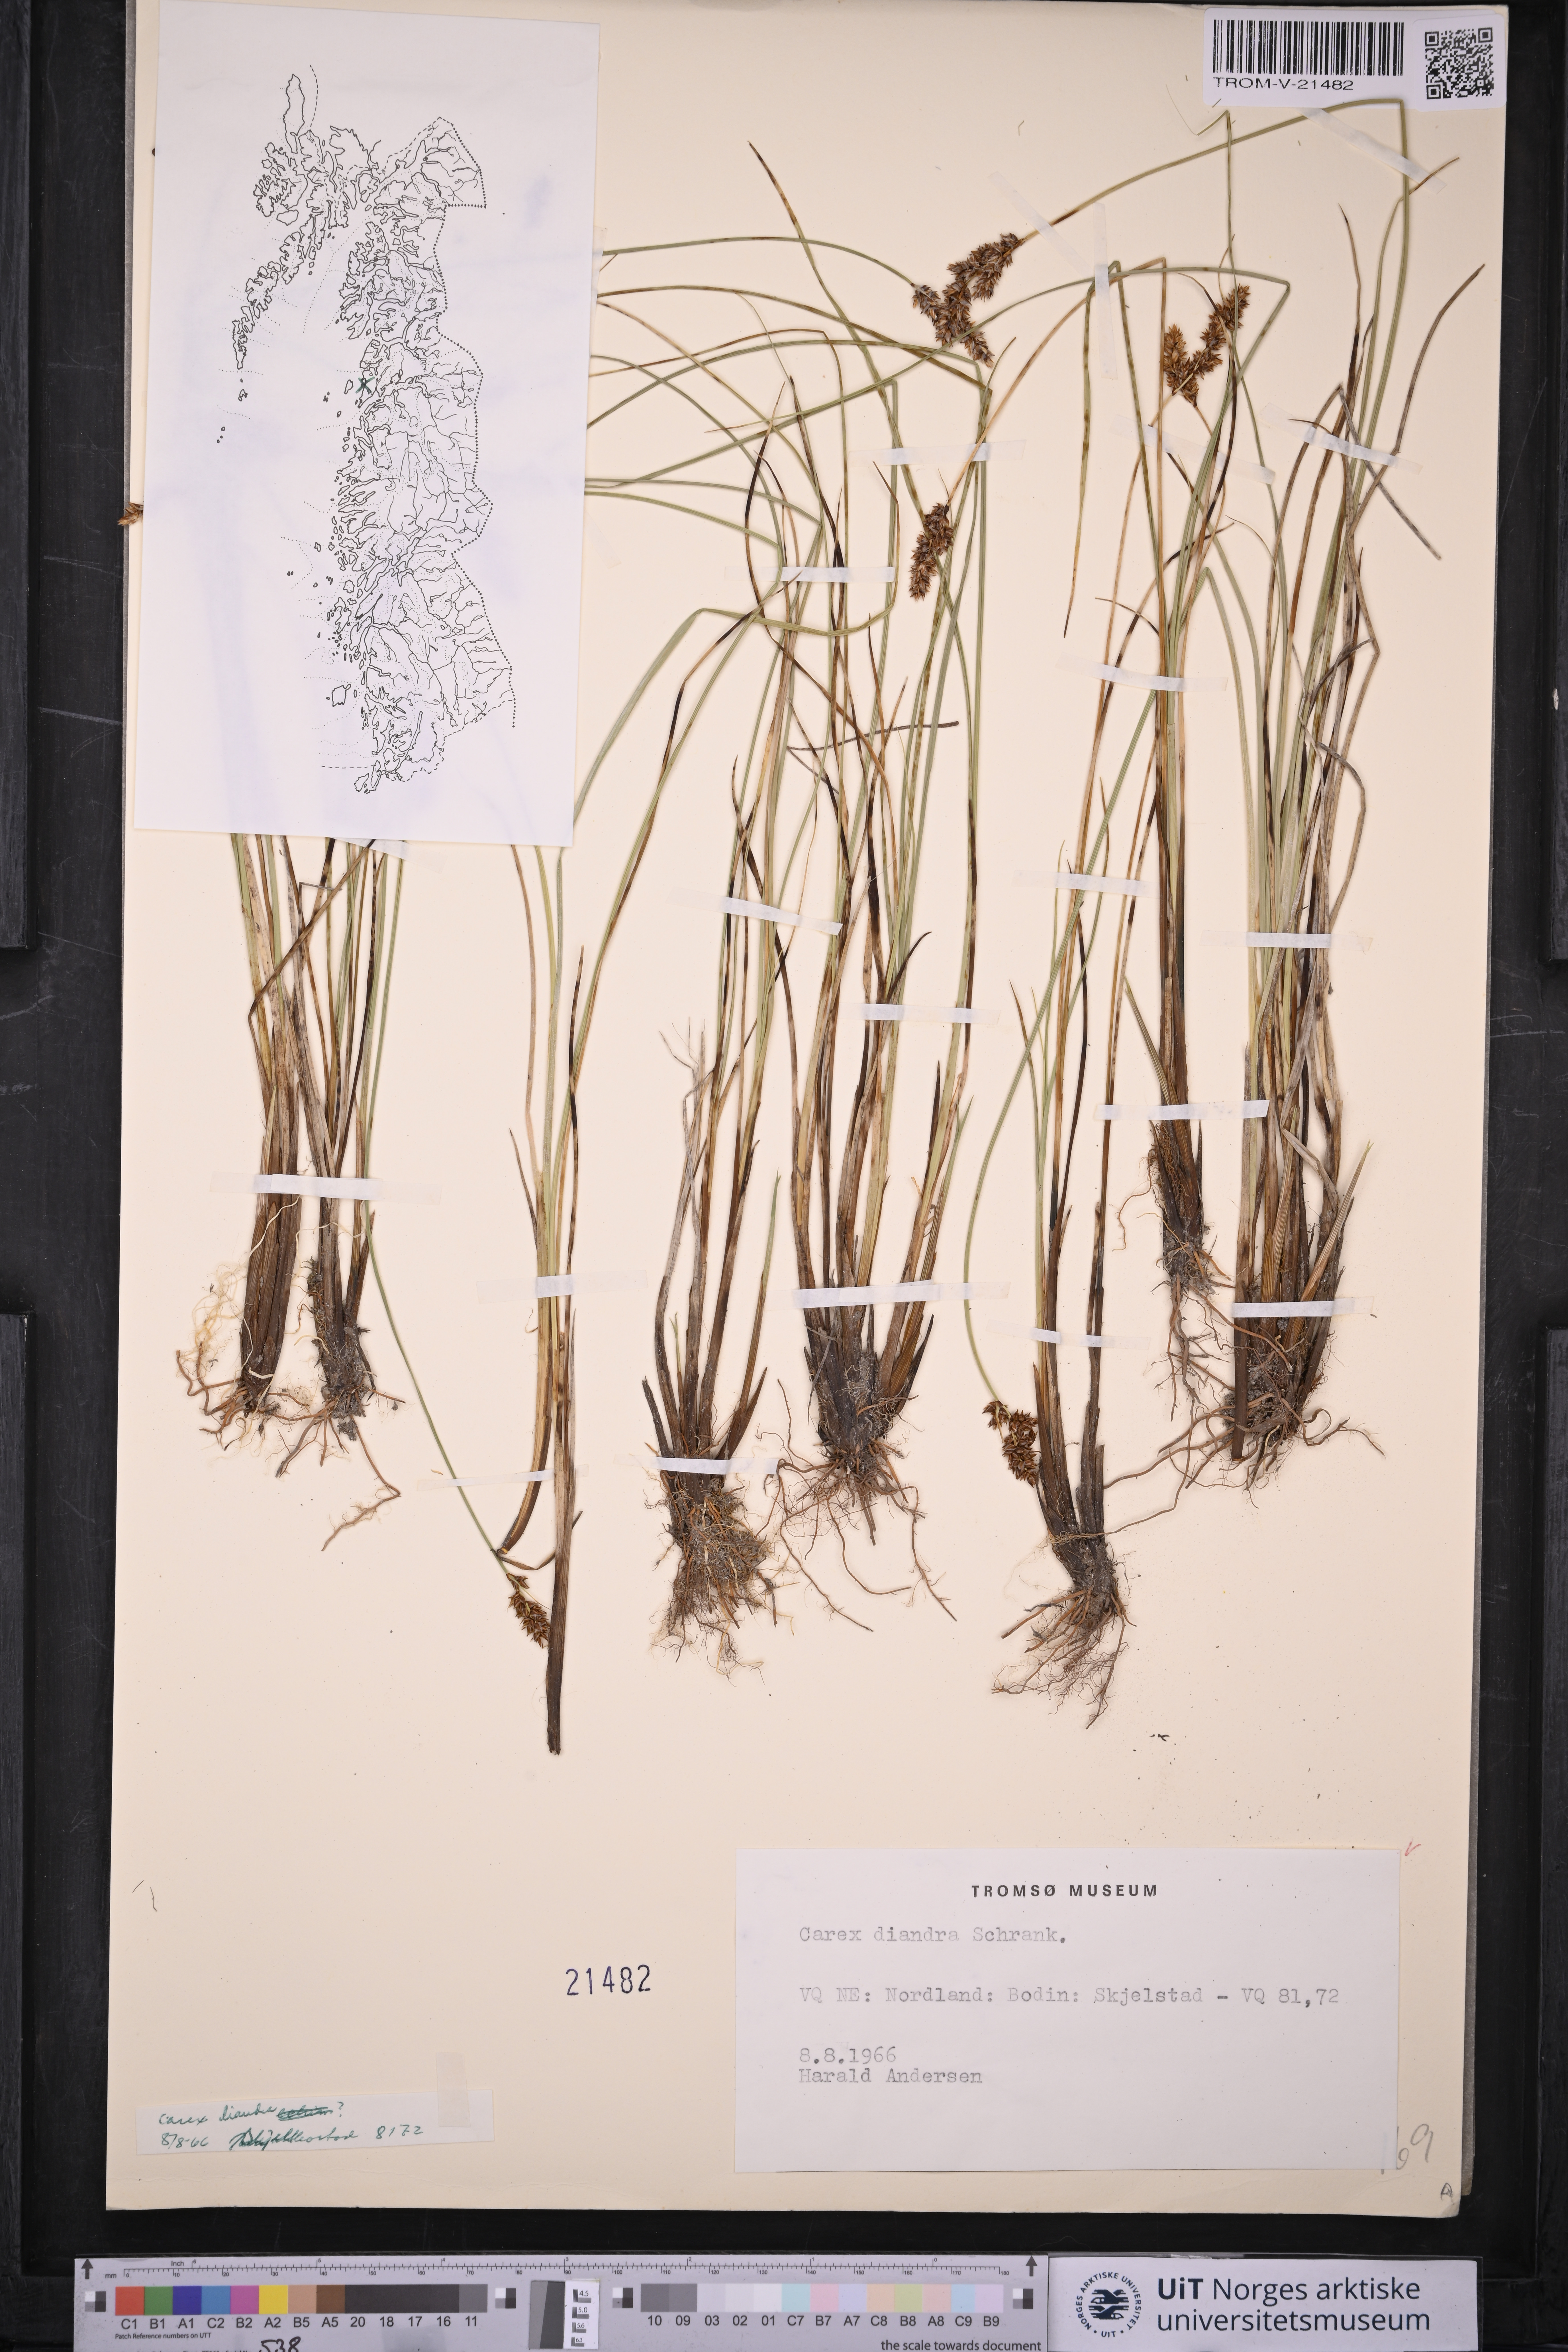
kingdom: Plantae
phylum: Tracheophyta
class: Liliopsida
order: Poales
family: Cyperaceae
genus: Carex
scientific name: Carex diandra
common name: Lesser tussock-sedge
